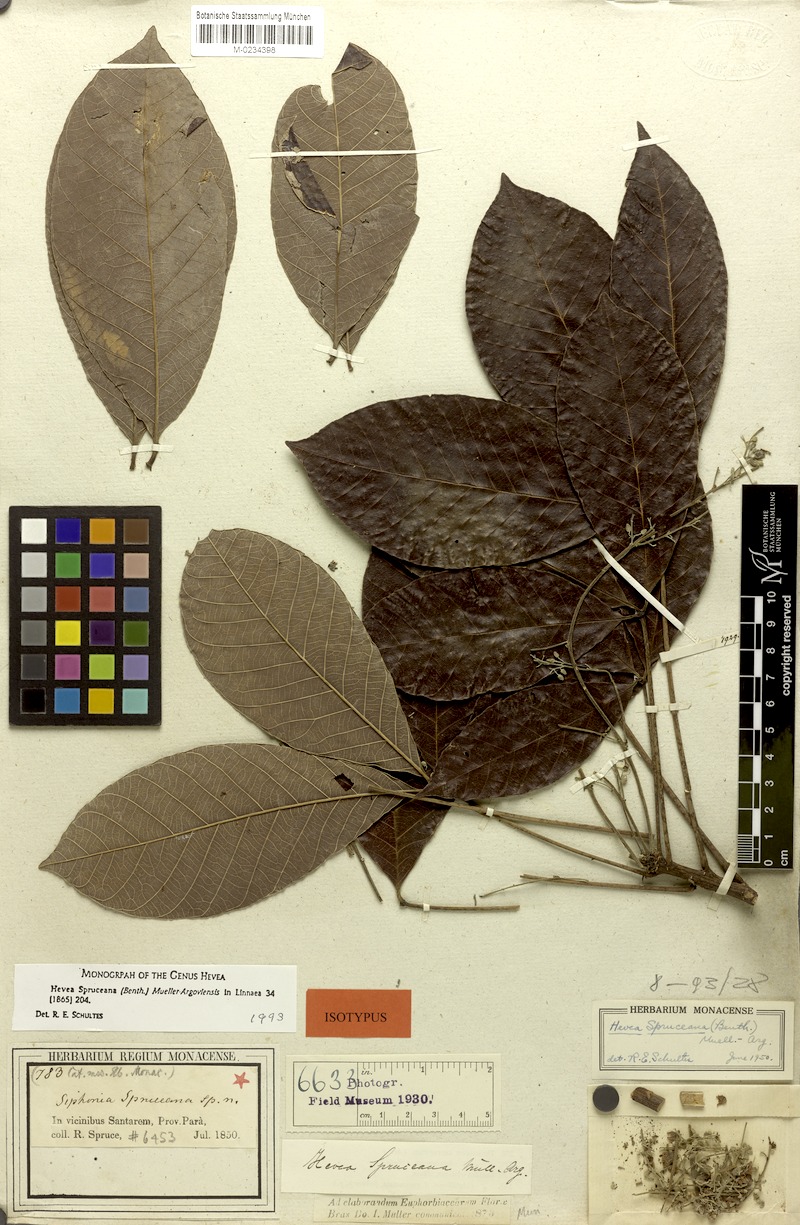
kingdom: Plantae
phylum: Tracheophyta
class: Magnoliopsida
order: Malpighiales
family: Euphorbiaceae
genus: Hevea
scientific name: Hevea spruceana
